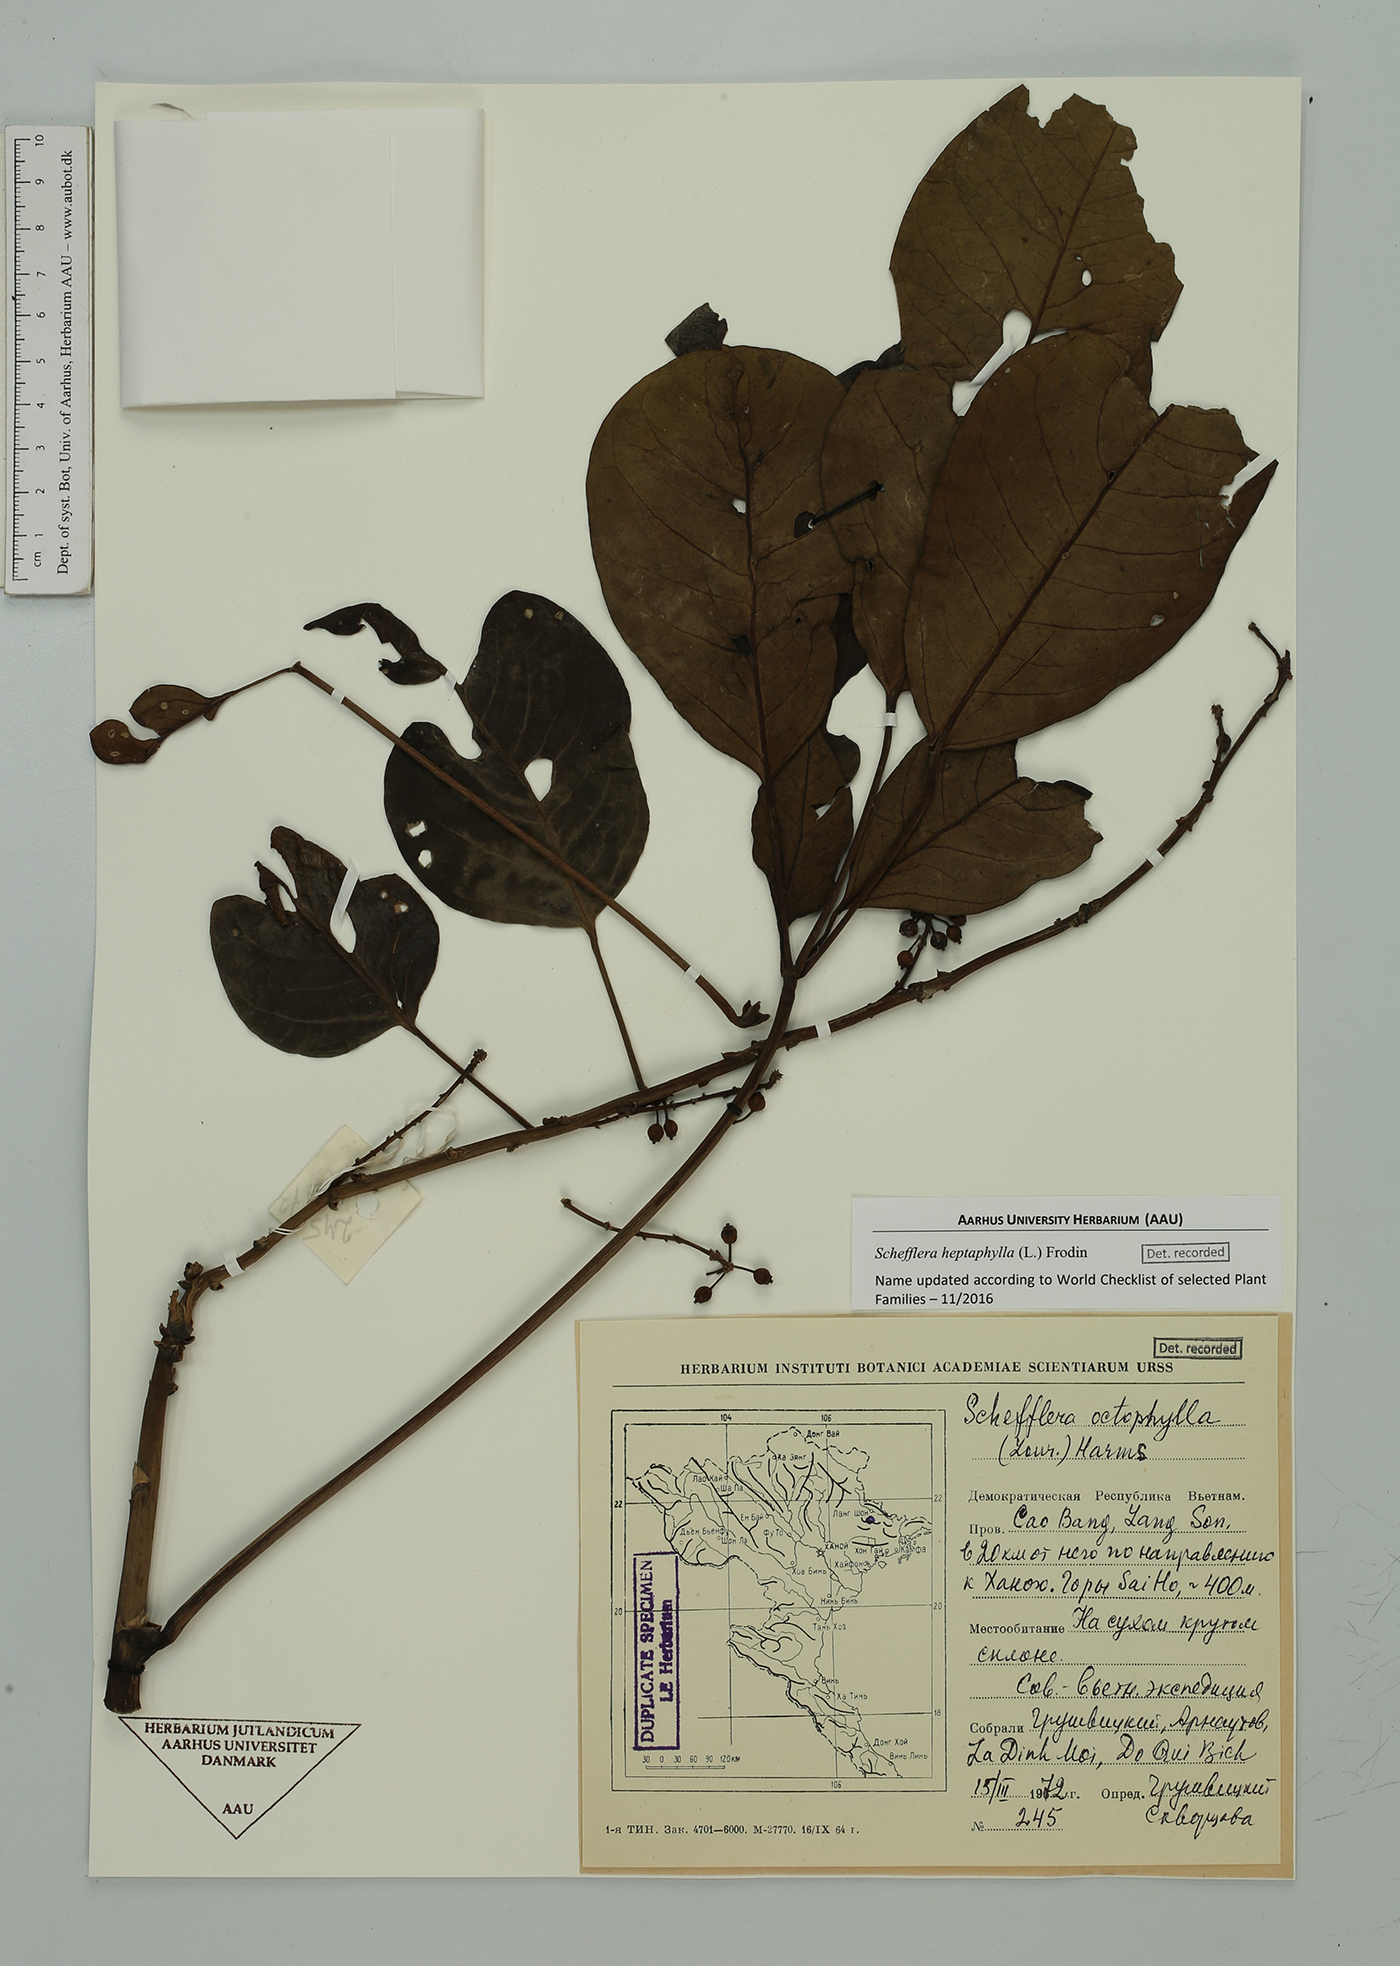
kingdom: Plantae
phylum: Tracheophyta
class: Magnoliopsida
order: Apiales
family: Araliaceae
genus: Heptapleurum
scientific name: Heptapleurum heptaphyllum
